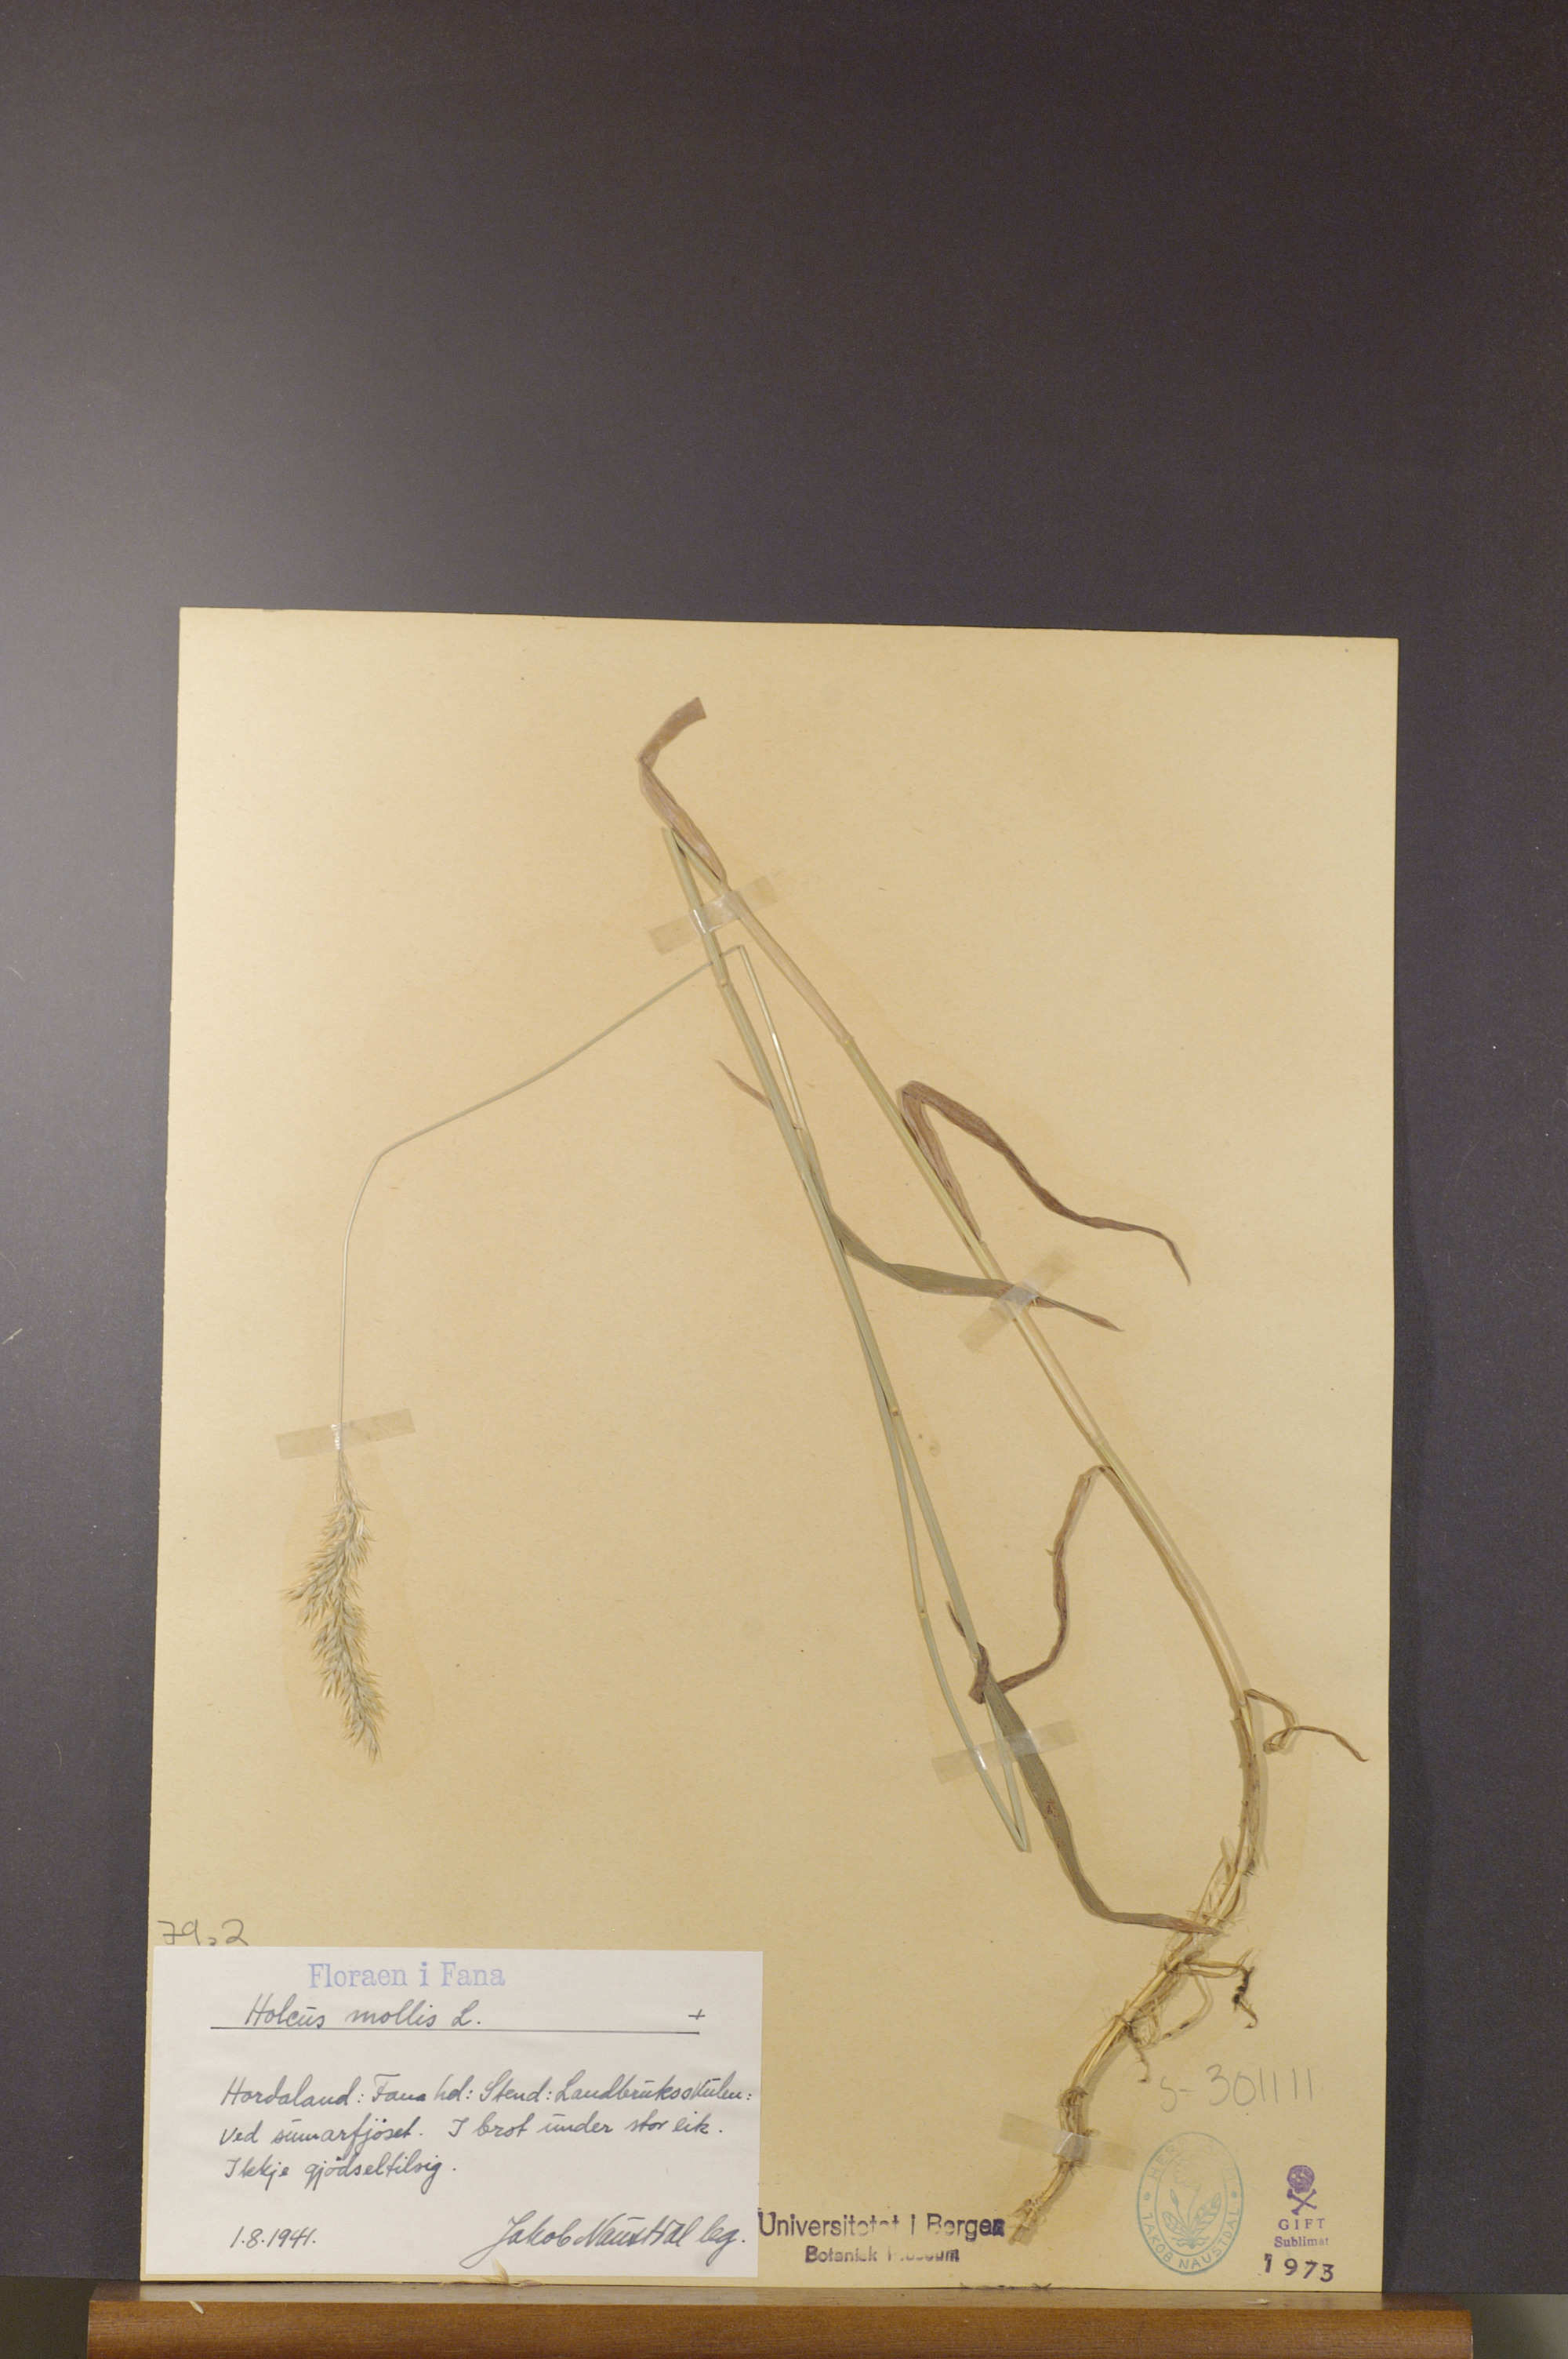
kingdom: Plantae
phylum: Tracheophyta
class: Liliopsida
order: Poales
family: Poaceae
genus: Holcus
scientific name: Holcus mollis
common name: Creeping velvetgrass
